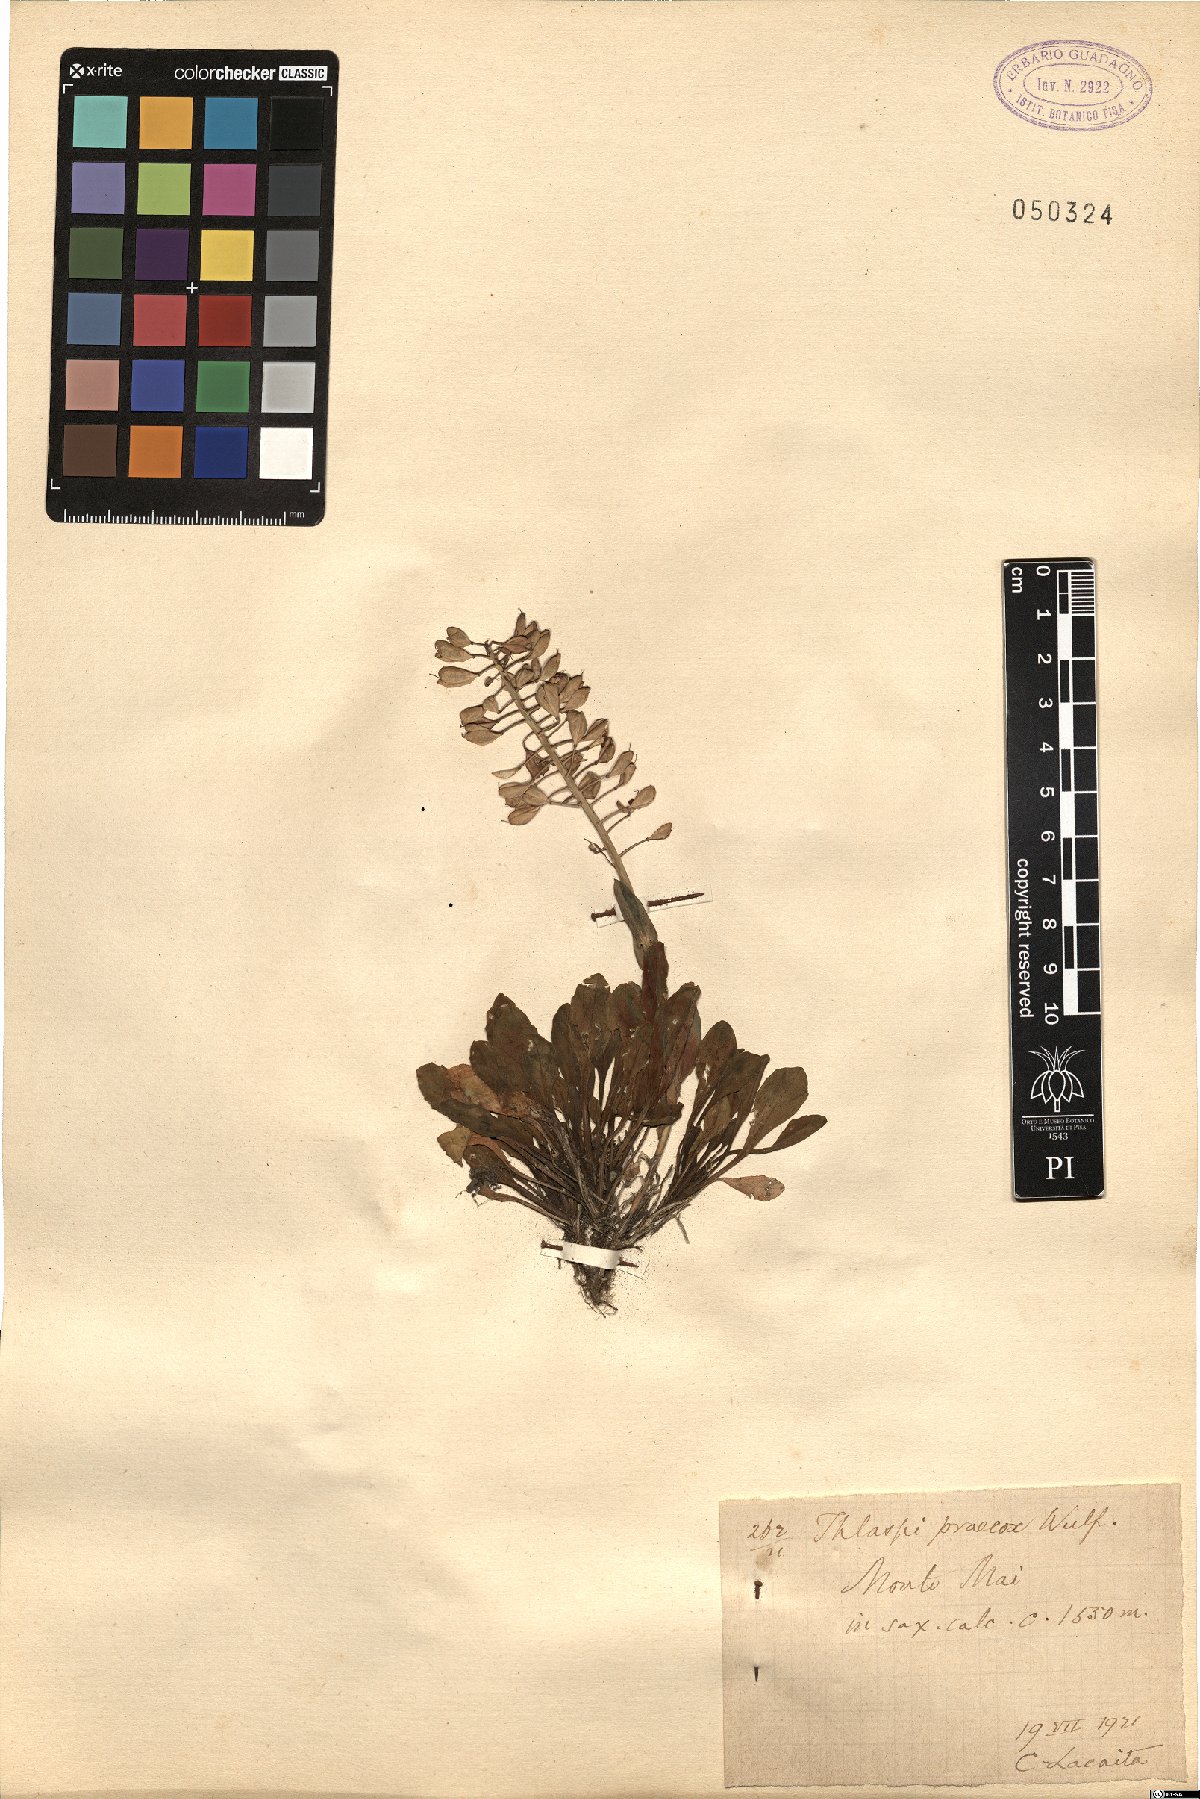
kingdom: Plantae
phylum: Tracheophyta
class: Magnoliopsida
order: Brassicales
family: Brassicaceae
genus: Noccaea
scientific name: Noccaea praecox
